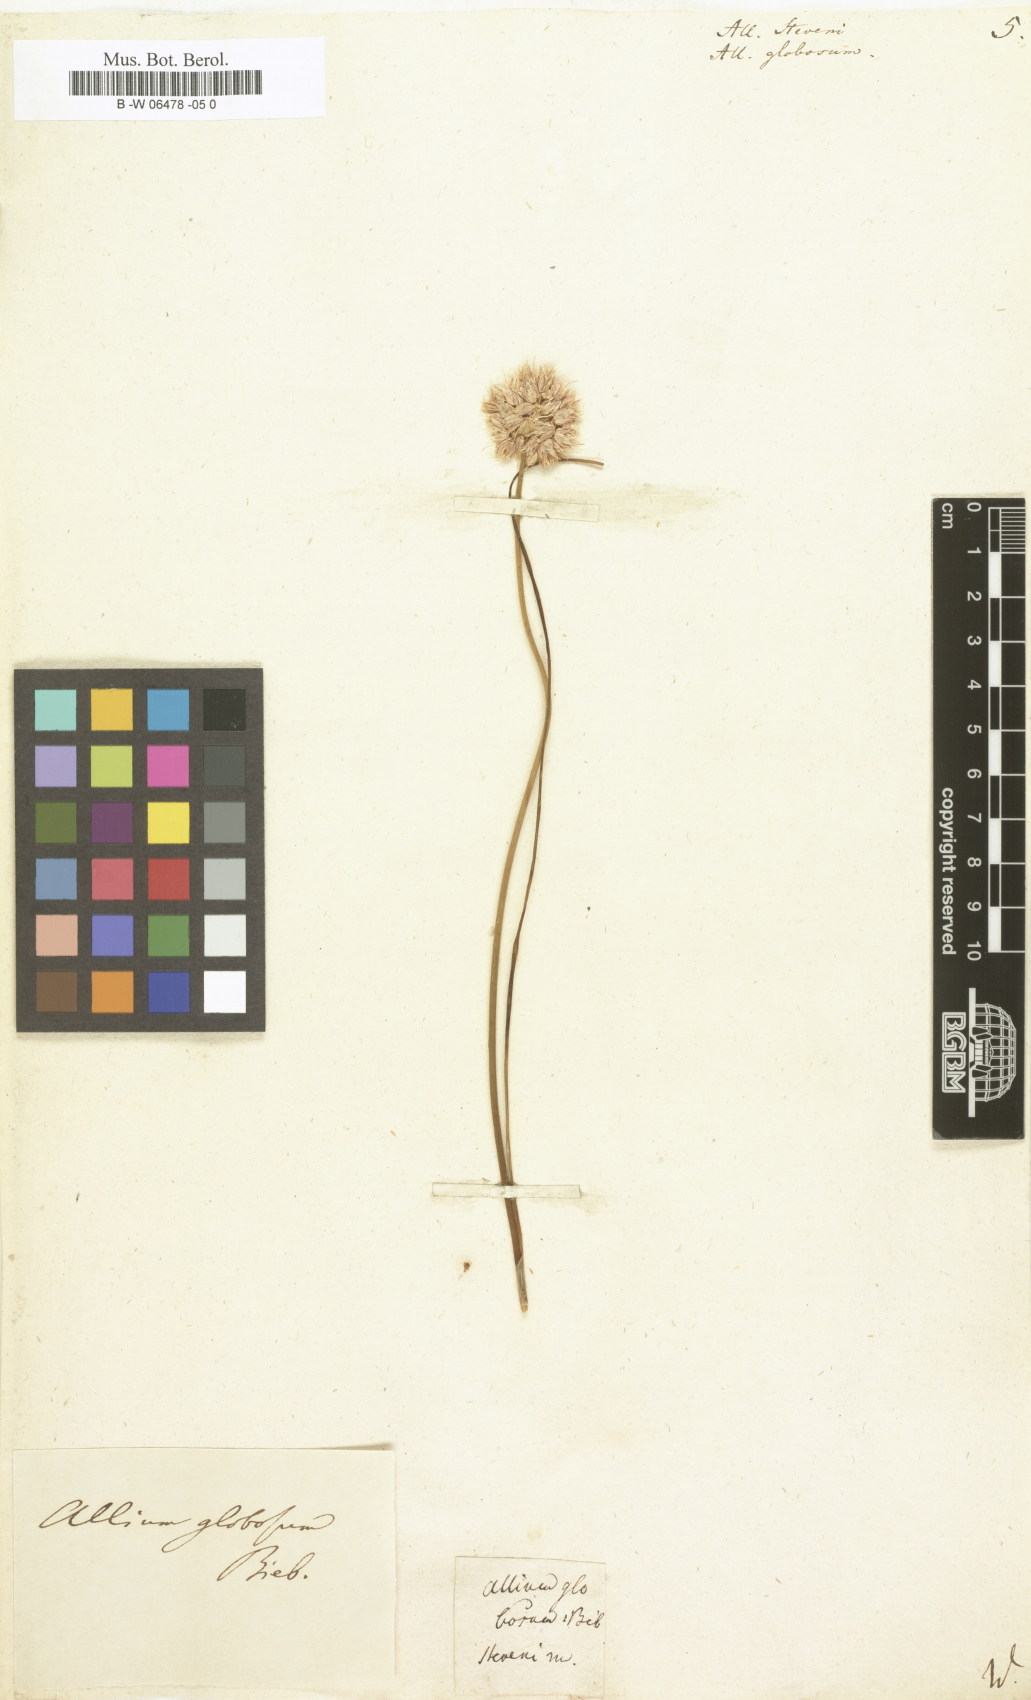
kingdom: Plantae
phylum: Tracheophyta
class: Liliopsida
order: Asparagales
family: Amaryllidaceae
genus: Allium
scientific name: Allium saxatile
